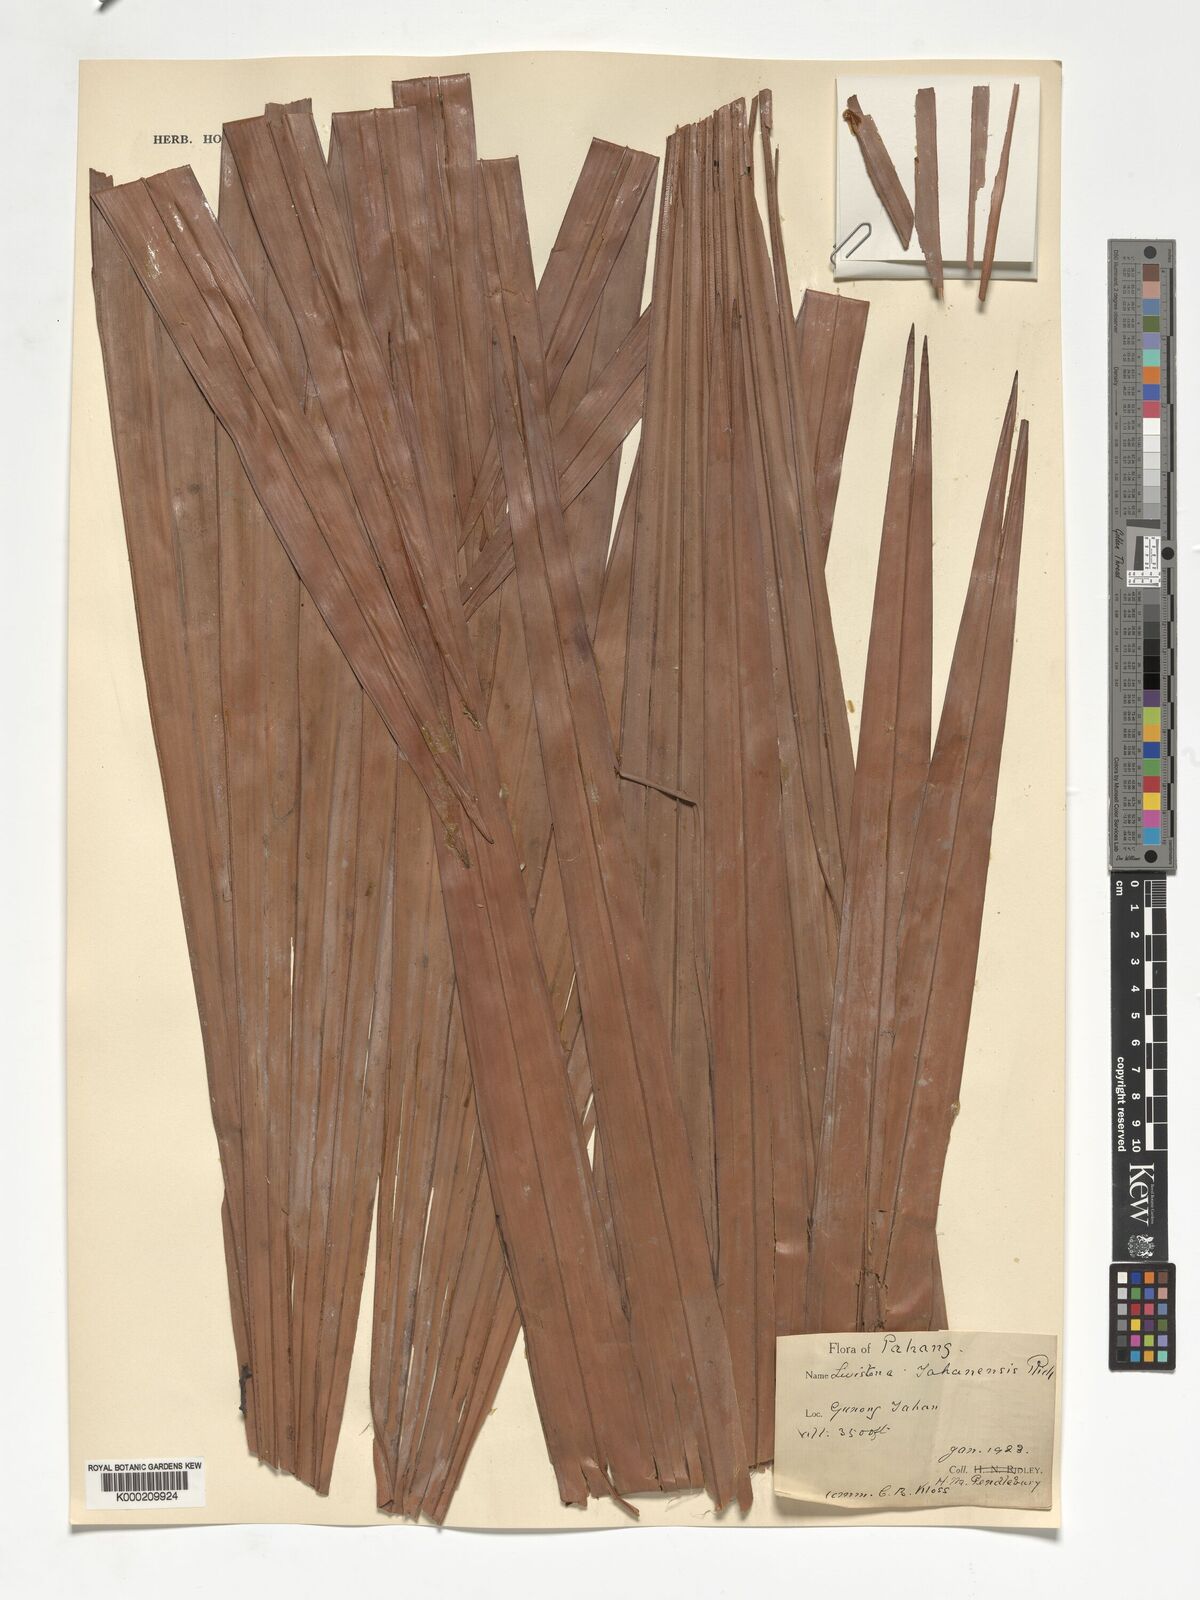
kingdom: Plantae
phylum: Tracheophyta
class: Liliopsida
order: Arecales
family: Arecaceae
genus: Livistona
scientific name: Livistona tahanensis
